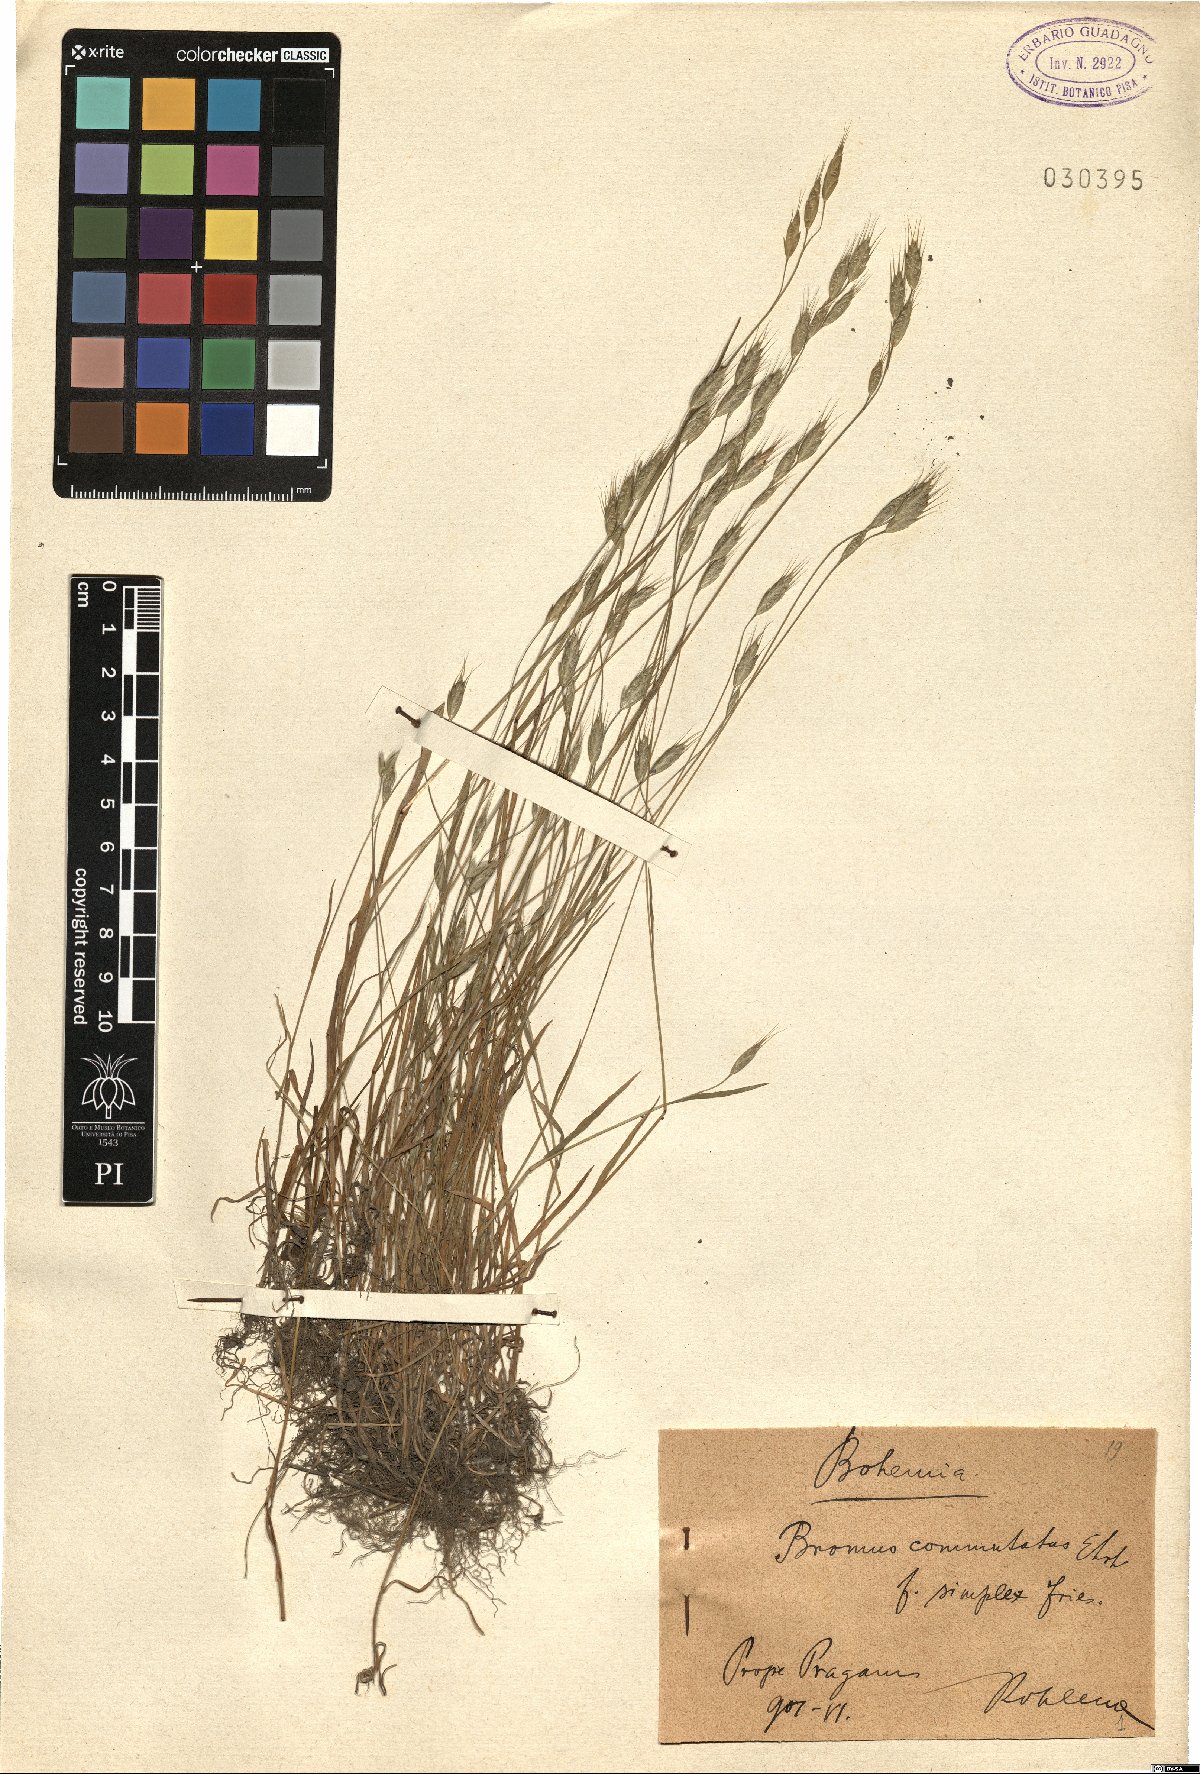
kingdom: Plantae
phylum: Tracheophyta
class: Liliopsida
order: Poales
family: Poaceae
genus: Bromus
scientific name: Bromus commutatus
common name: Meadow brome
